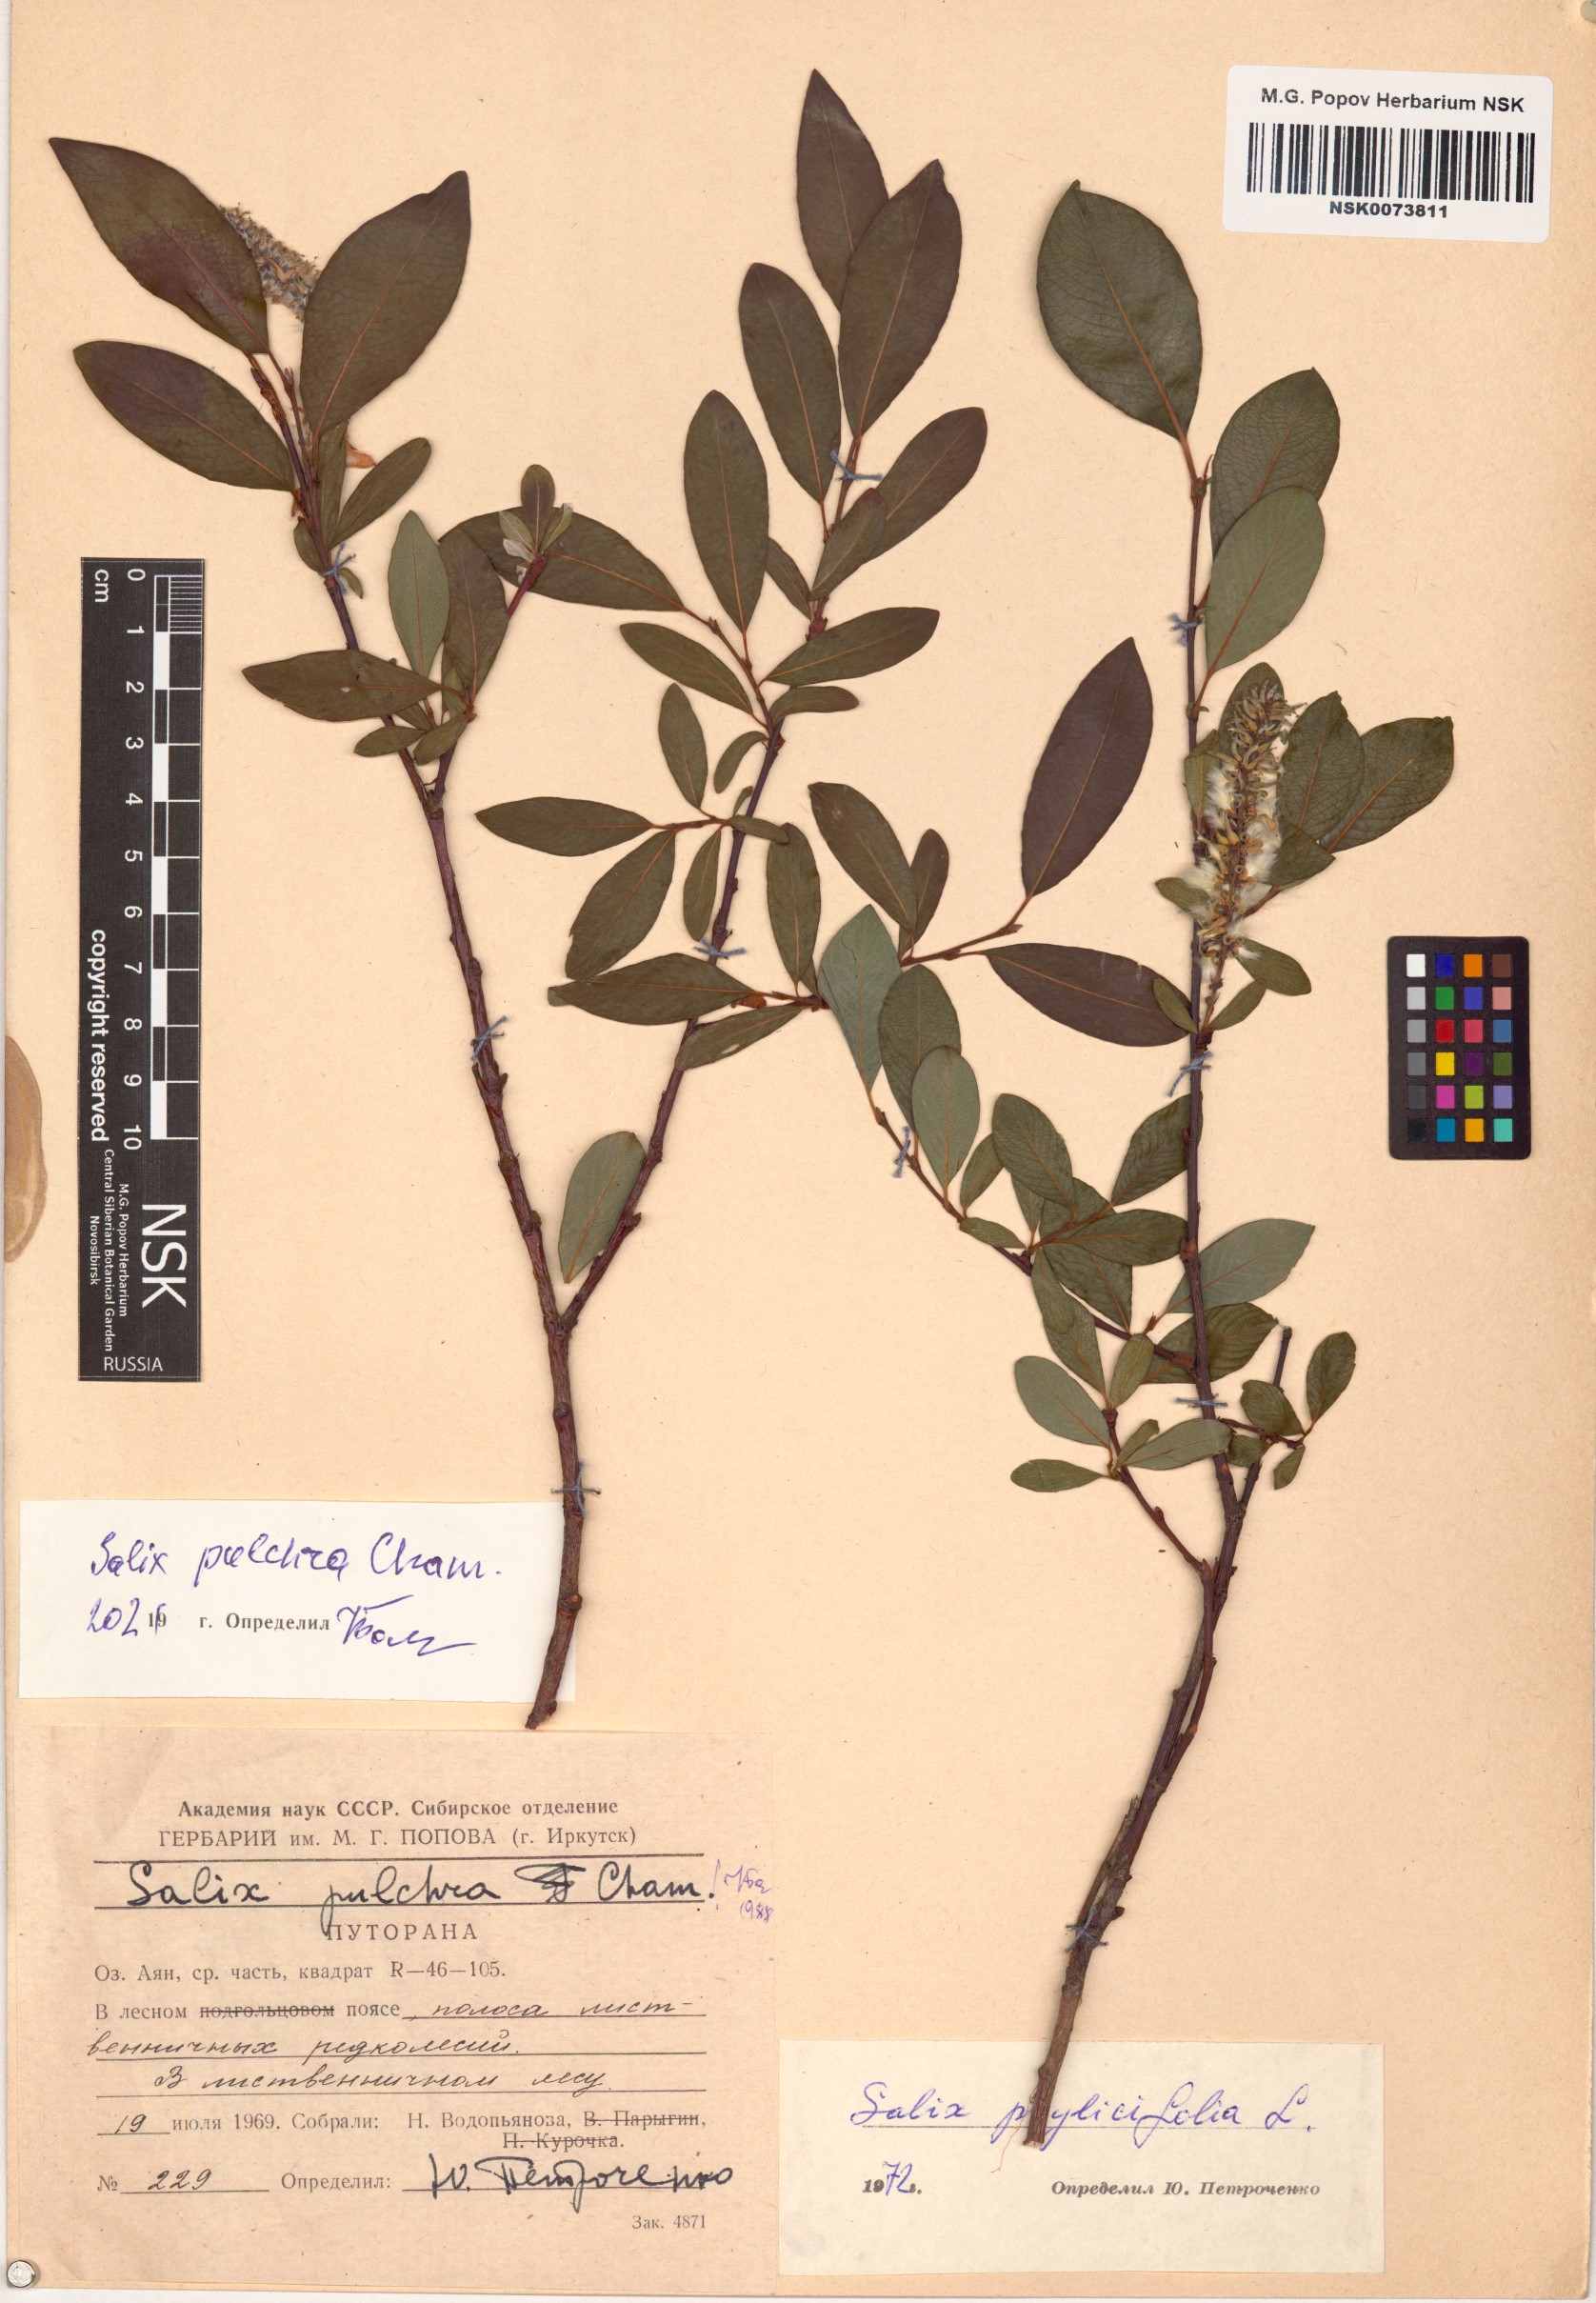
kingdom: Plantae
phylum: Tracheophyta
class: Magnoliopsida
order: Malpighiales
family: Salicaceae
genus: Salix
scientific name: Salix pulchra
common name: Diamond-leaved willow
